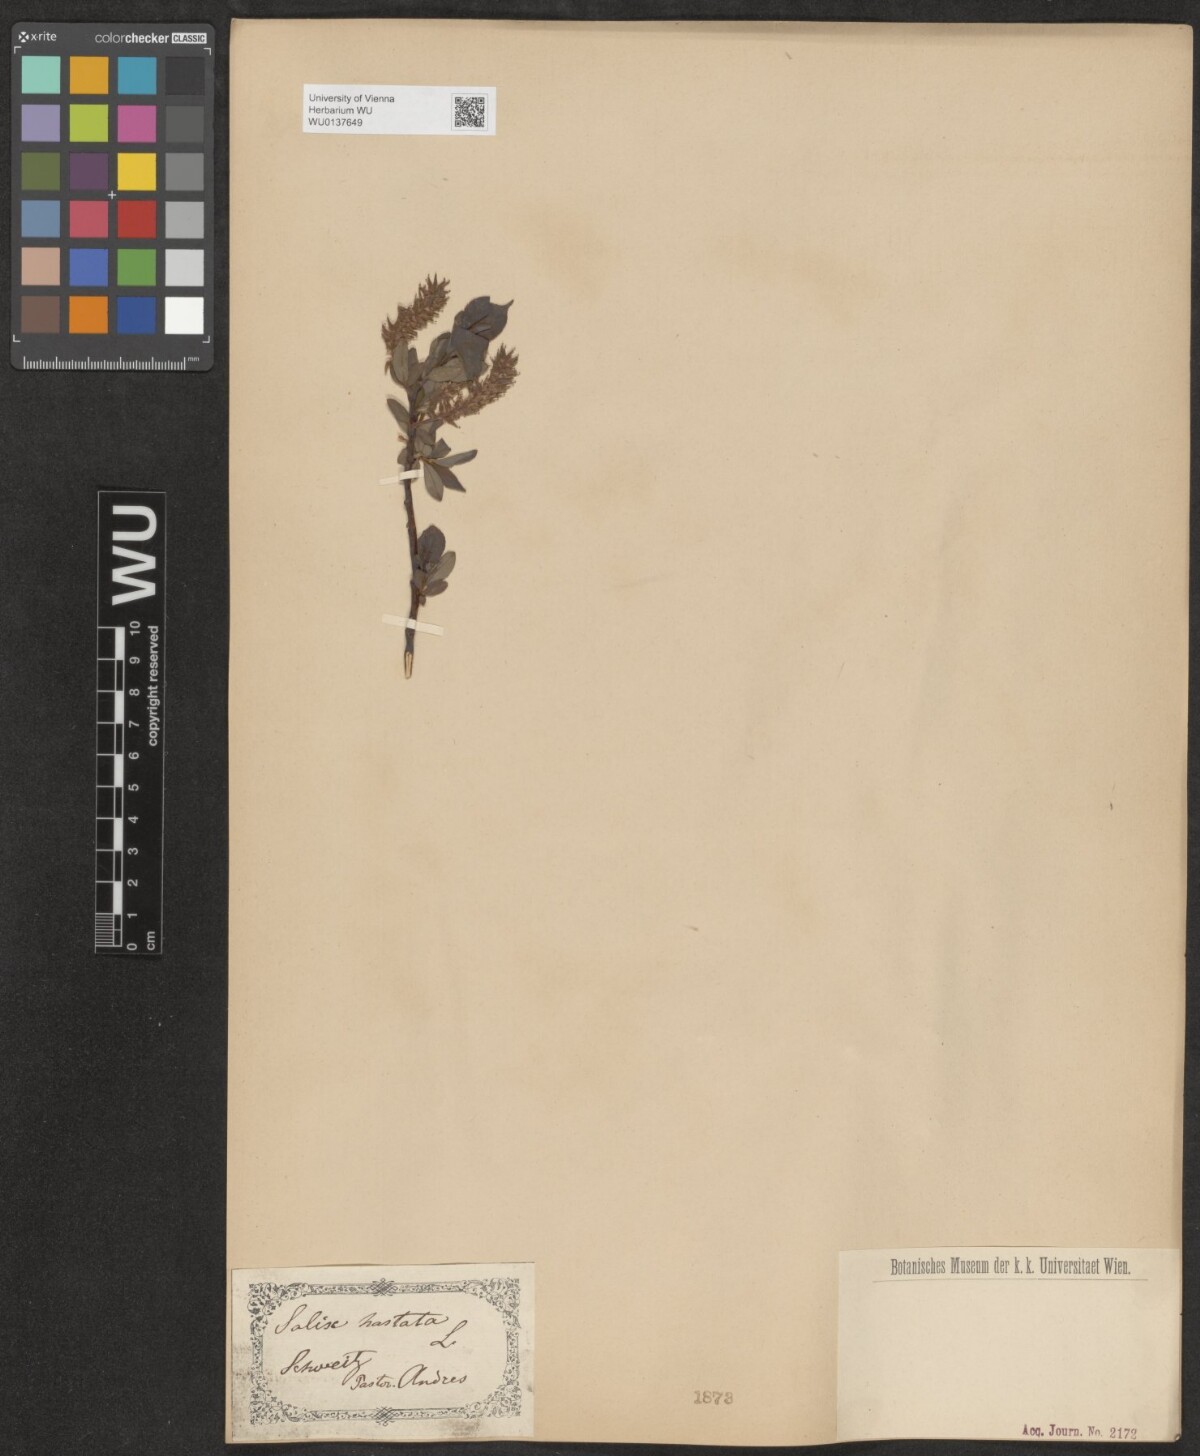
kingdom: Plantae
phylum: Tracheophyta
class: Magnoliopsida
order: Malpighiales
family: Salicaceae
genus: Salix
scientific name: Salix hastata
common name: Halberd willow
